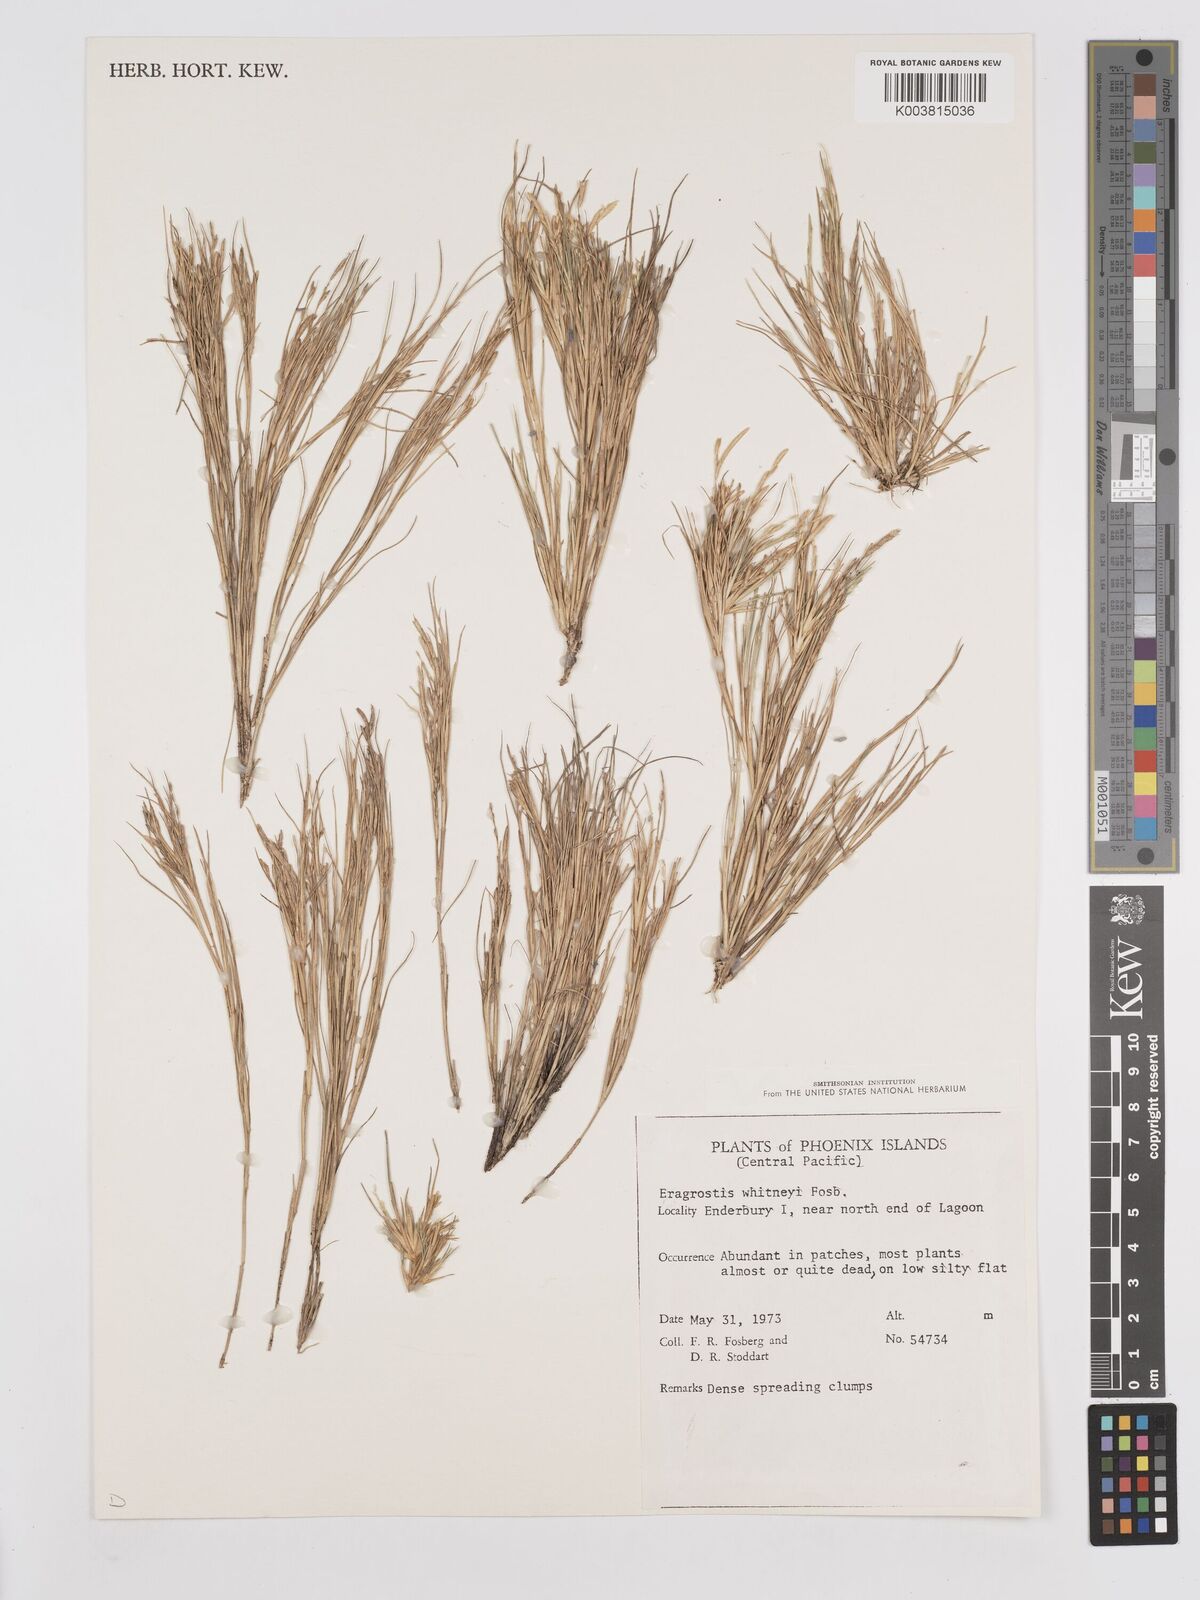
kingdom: Plantae
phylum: Tracheophyta
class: Liliopsida
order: Poales
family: Poaceae
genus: Eragrostis
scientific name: Eragrostis paupera
